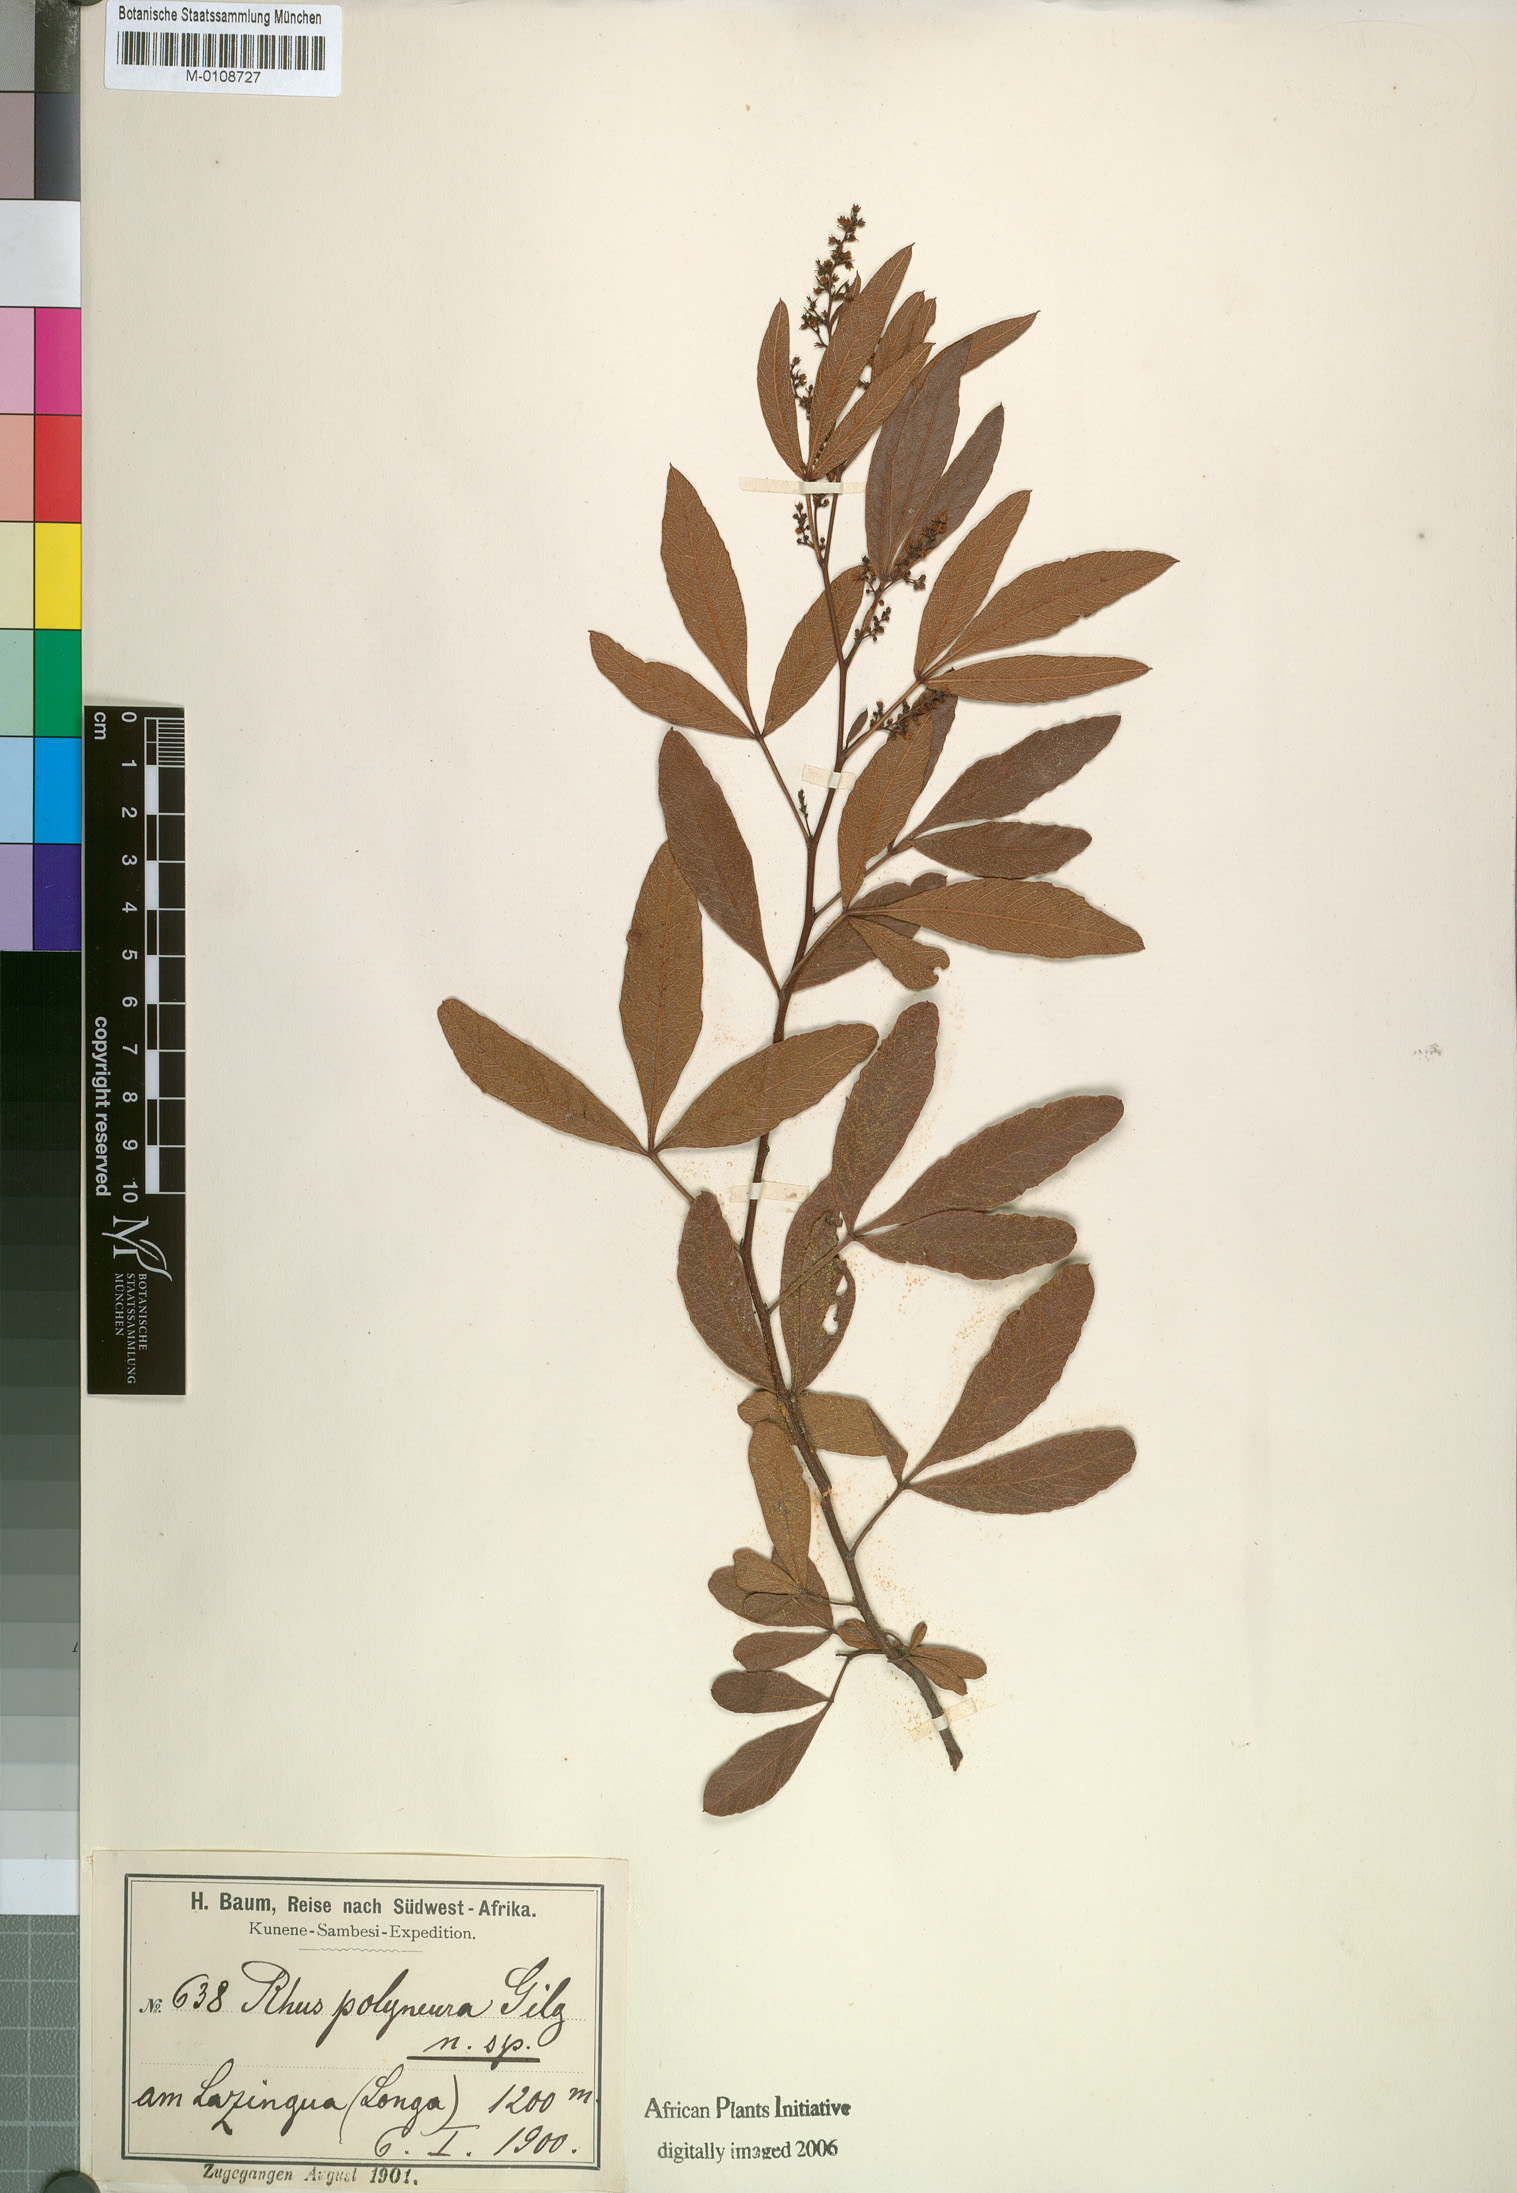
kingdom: Plantae
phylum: Tracheophyta
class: Magnoliopsida
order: Sapindales
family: Anacardiaceae
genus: Searsia
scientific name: Searsia kirkii
